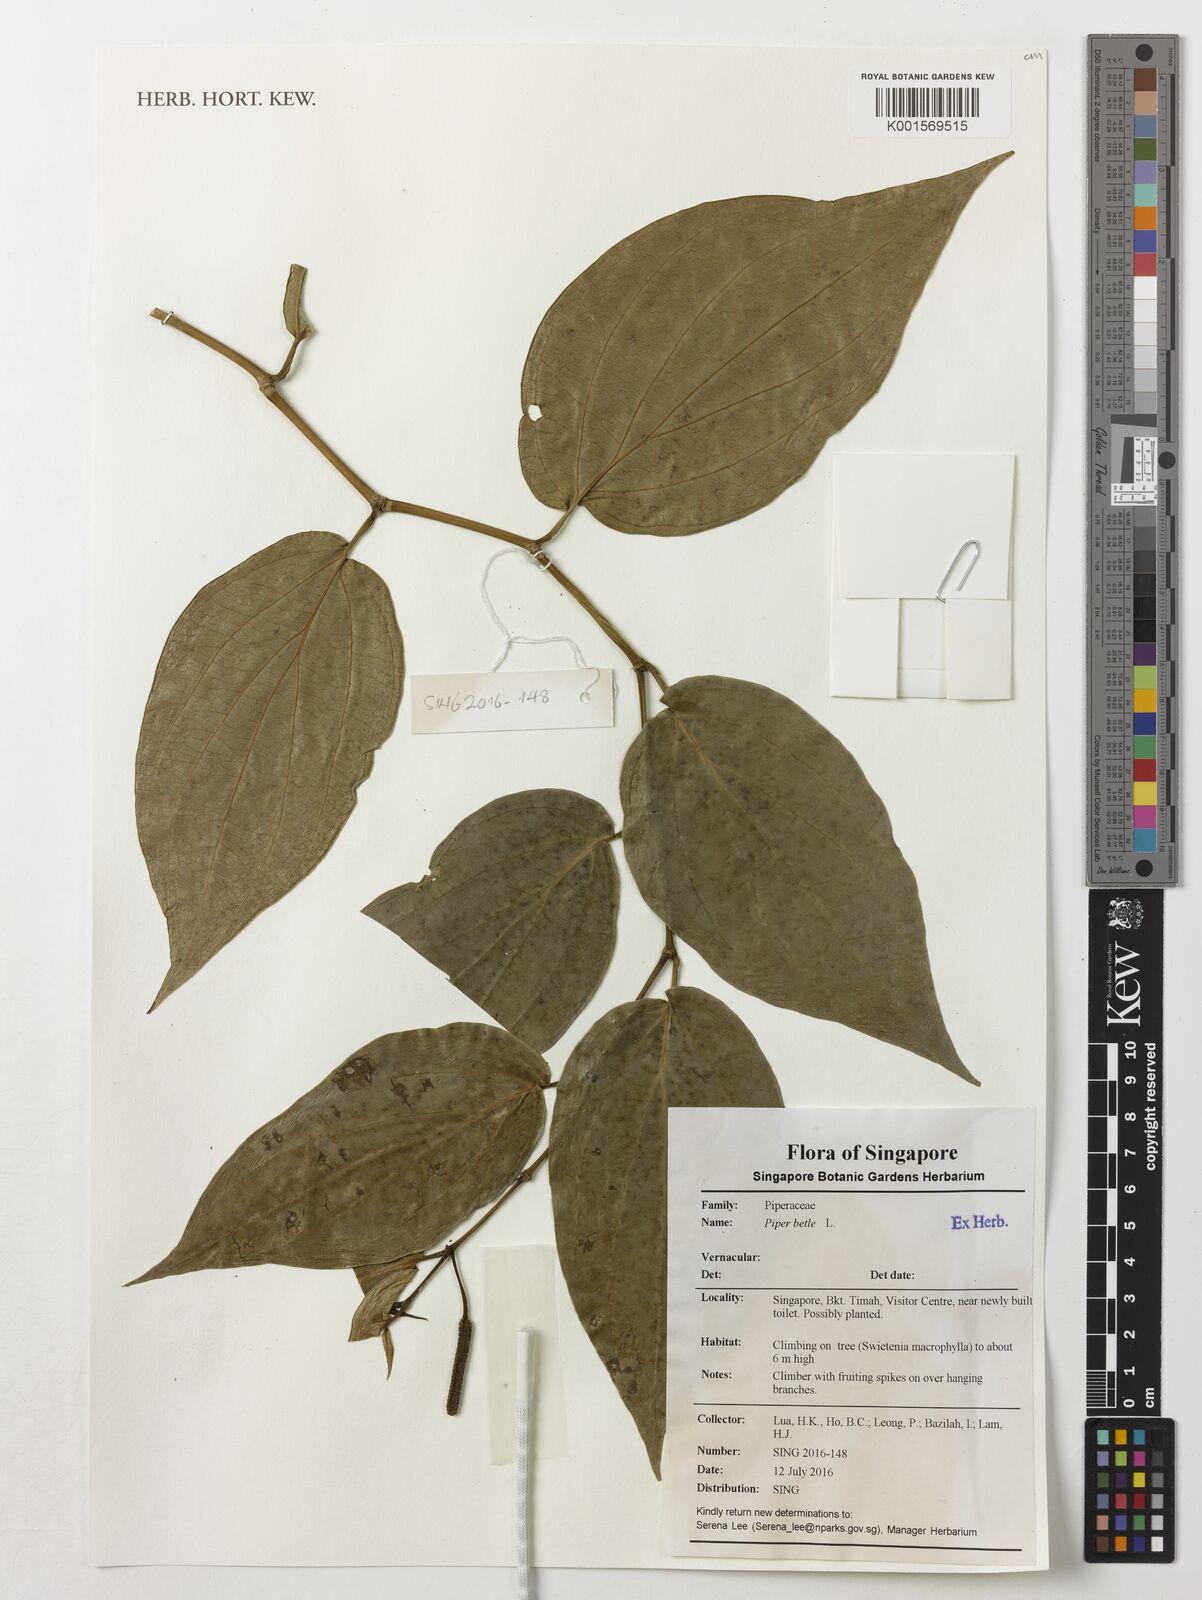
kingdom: Plantae
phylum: Tracheophyta
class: Magnoliopsida
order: Piperales
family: Piperaceae
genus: Piper
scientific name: Piper betle
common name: Betel pepper
